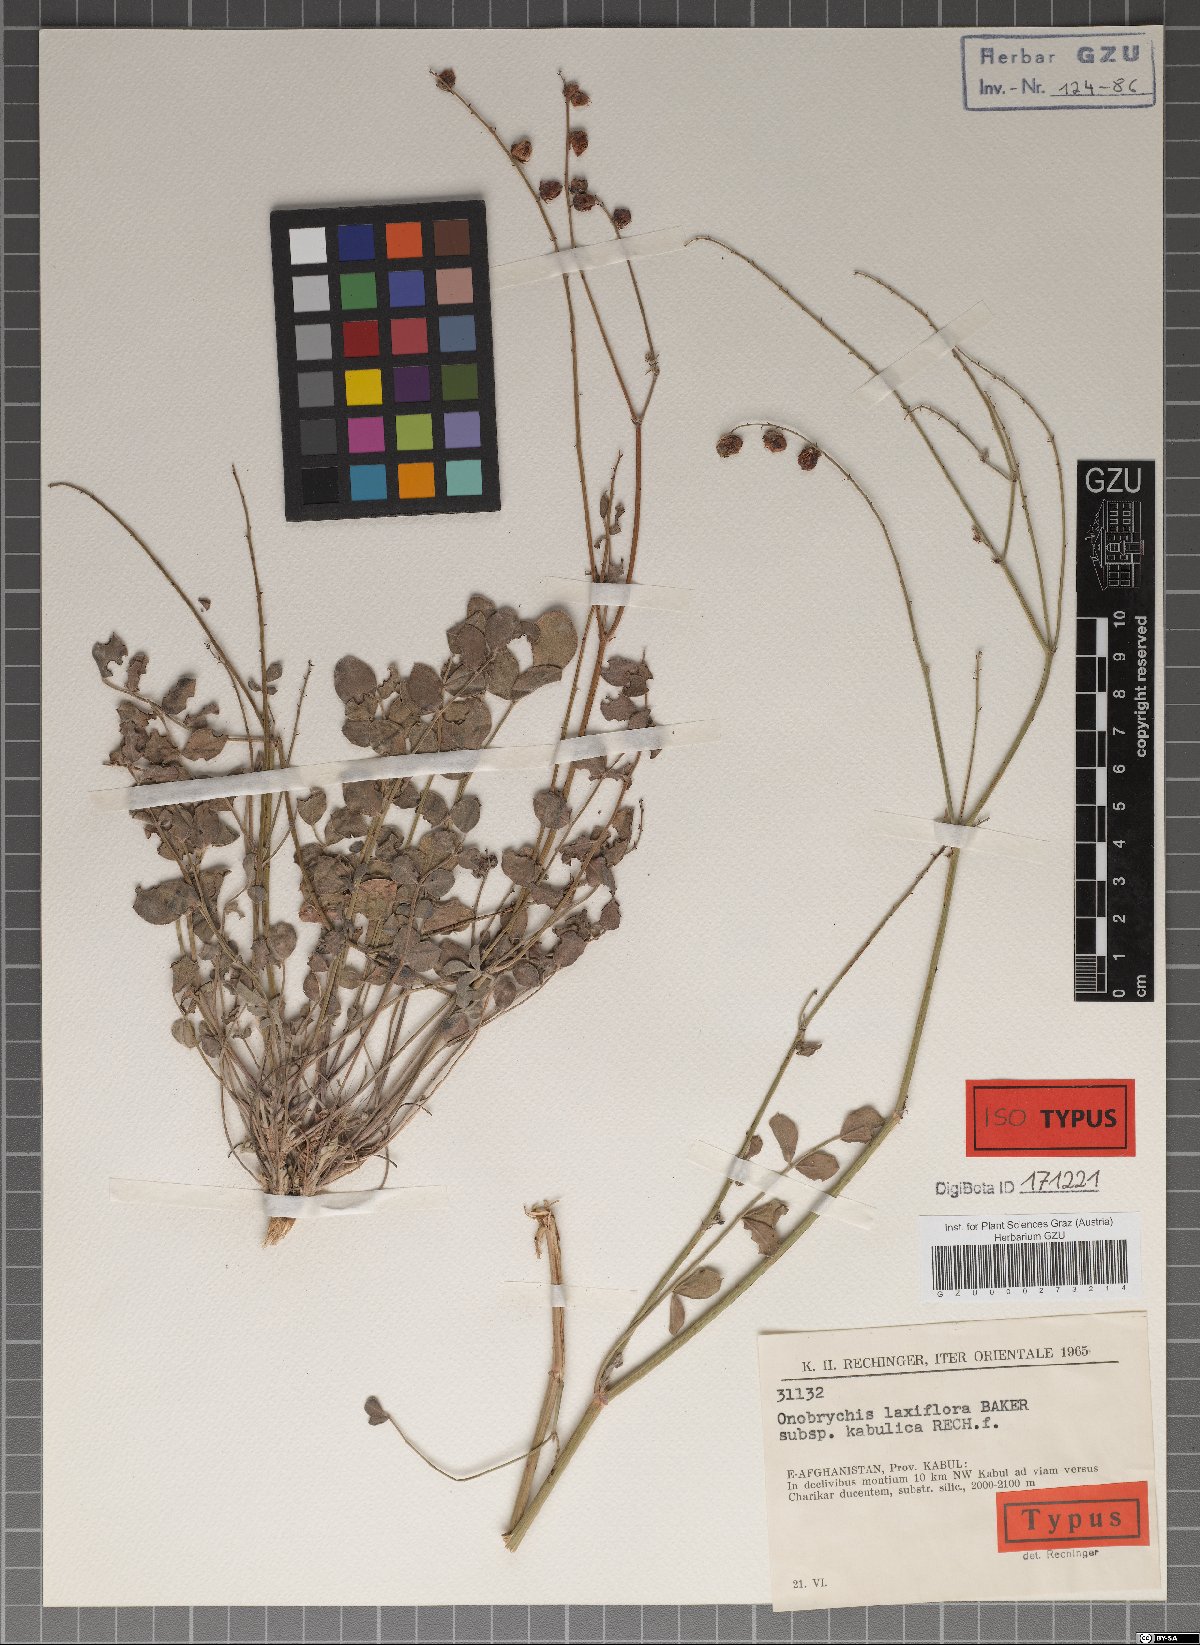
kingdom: Plantae
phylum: Tracheophyta
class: Magnoliopsida
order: Fabales
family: Fabaceae
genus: Onobrychis
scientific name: Onobrychis laxiflora
